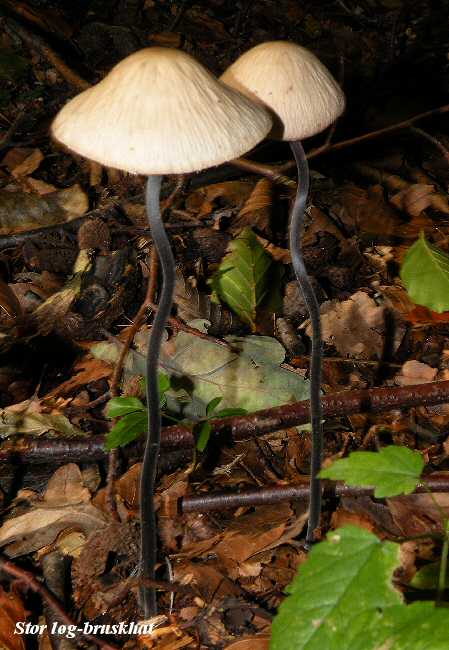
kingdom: Fungi
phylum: Basidiomycota
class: Agaricomycetes
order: Agaricales
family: Omphalotaceae
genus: Mycetinis
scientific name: Mycetinis alliaceus
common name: stor løghat
